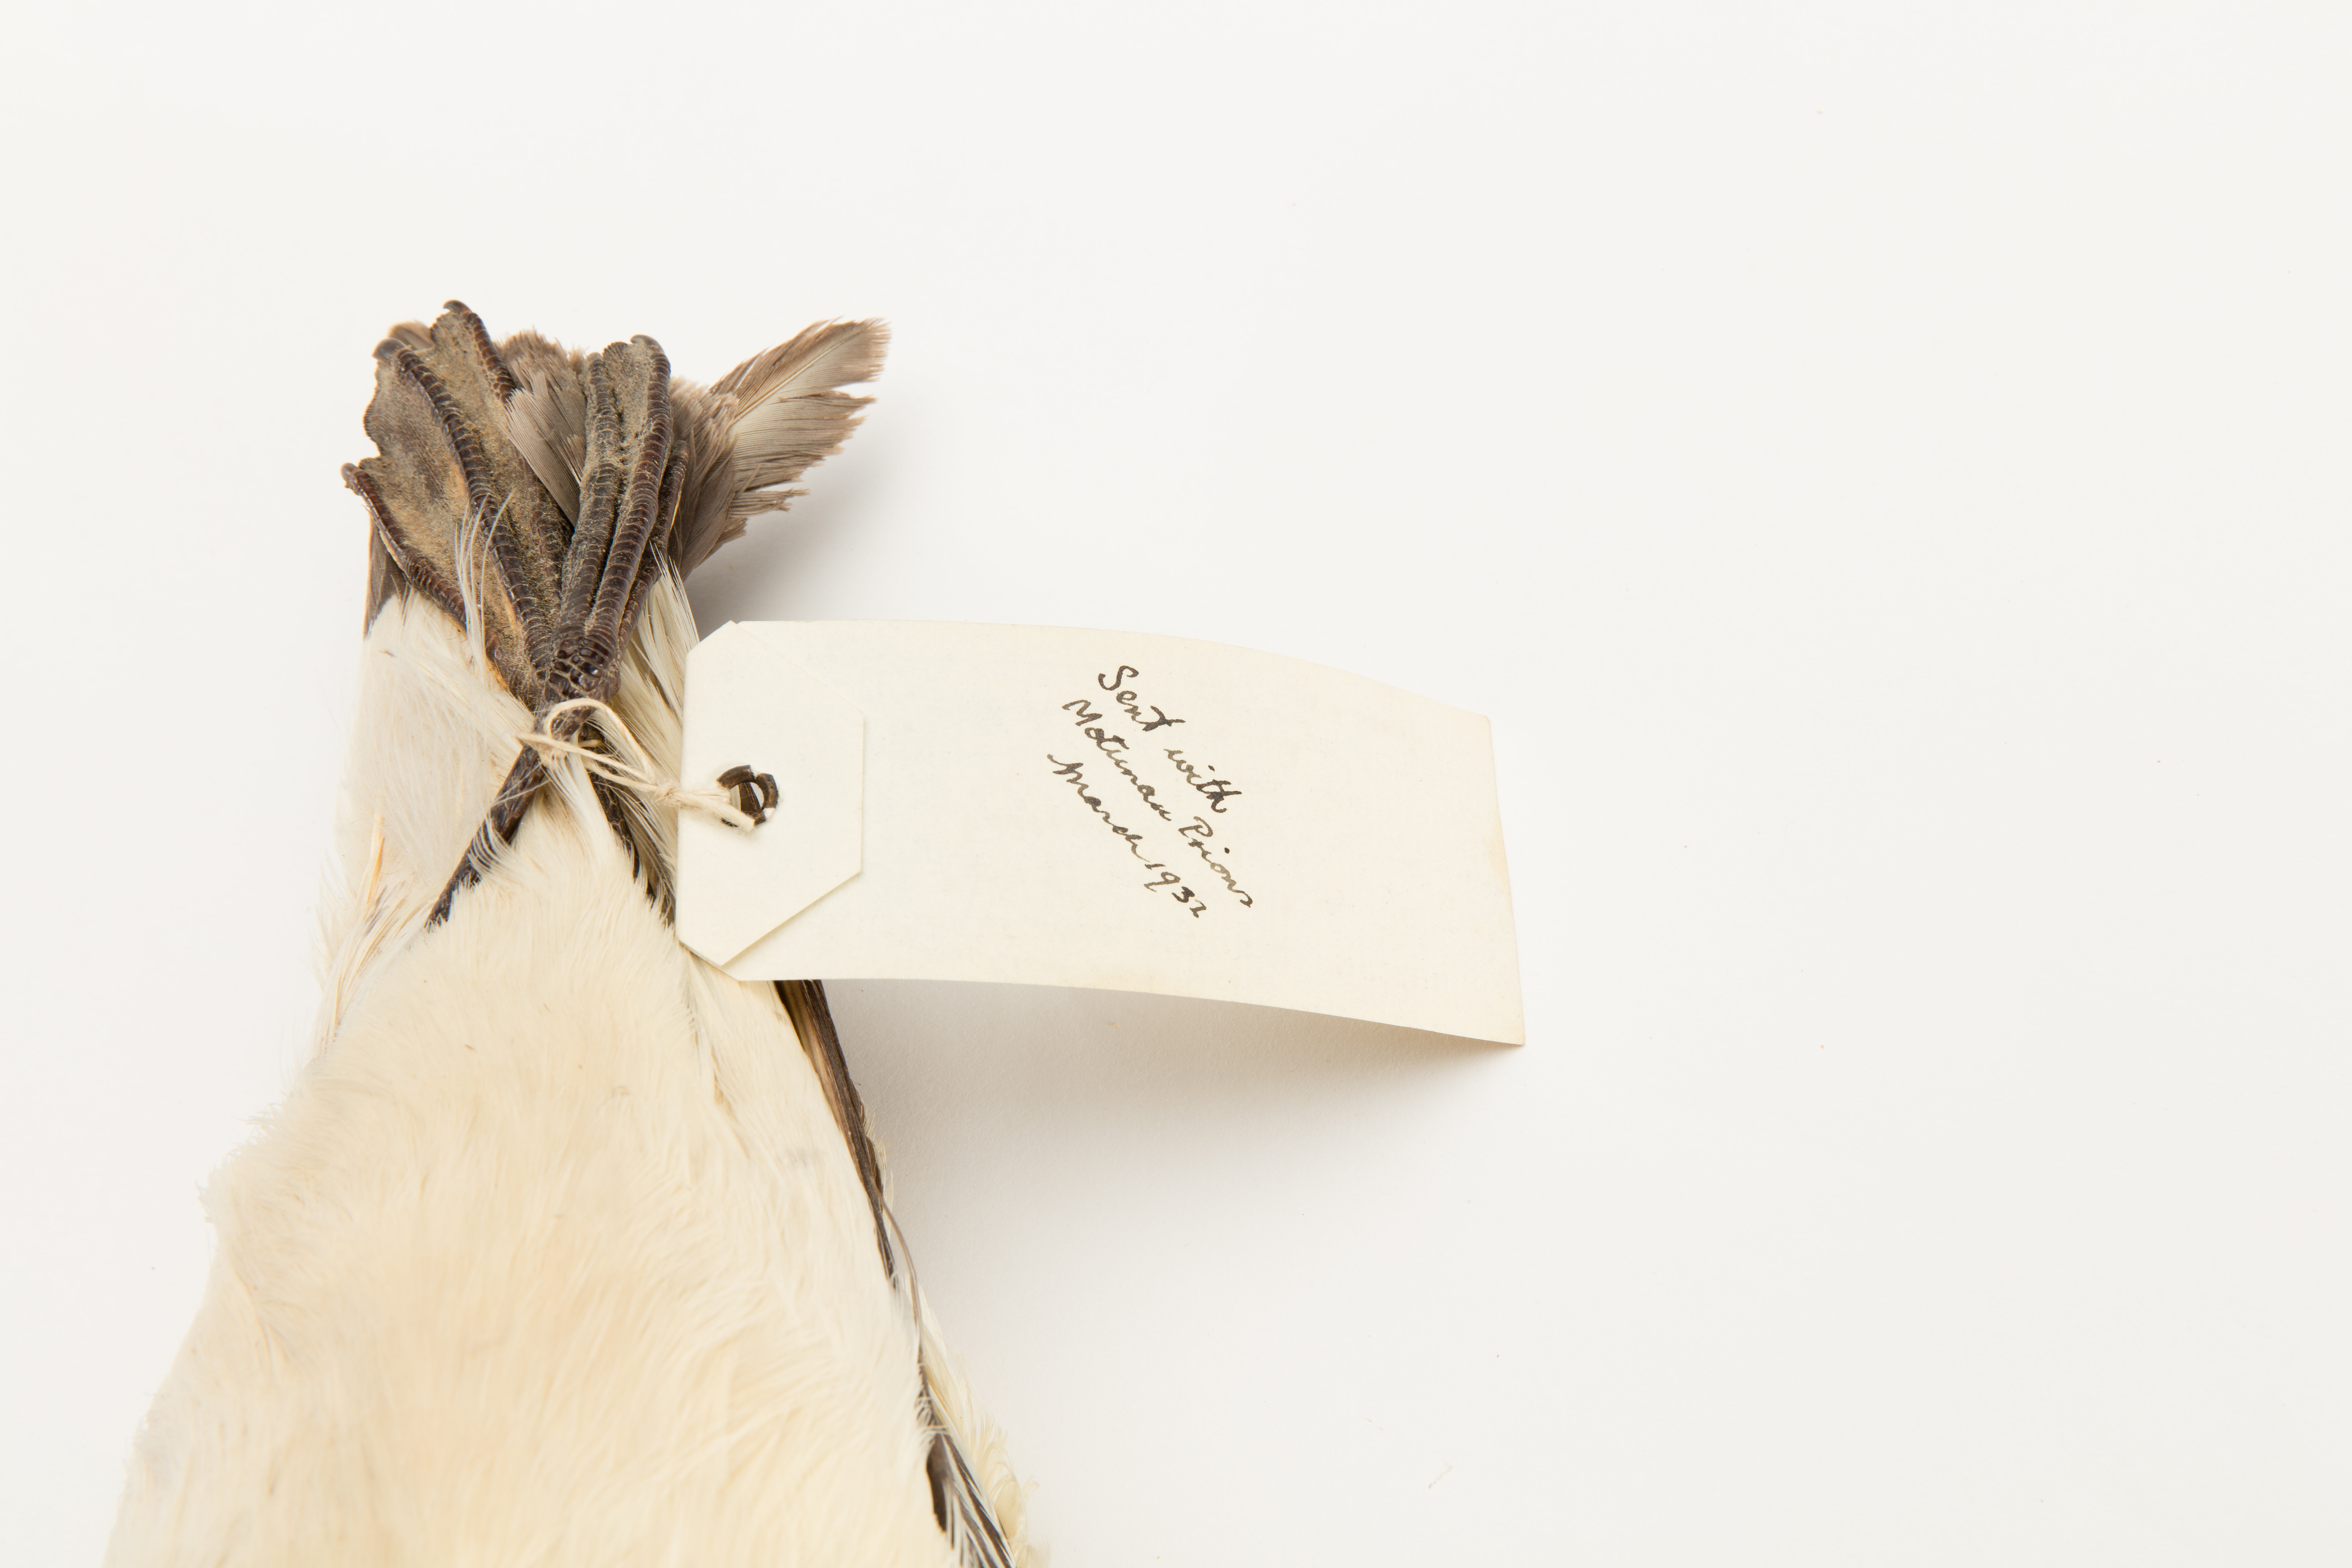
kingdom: Animalia
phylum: Chordata
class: Aves
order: Procellariiformes
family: Procellariidae
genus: Daption
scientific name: Daption capense
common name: Cape petrel
